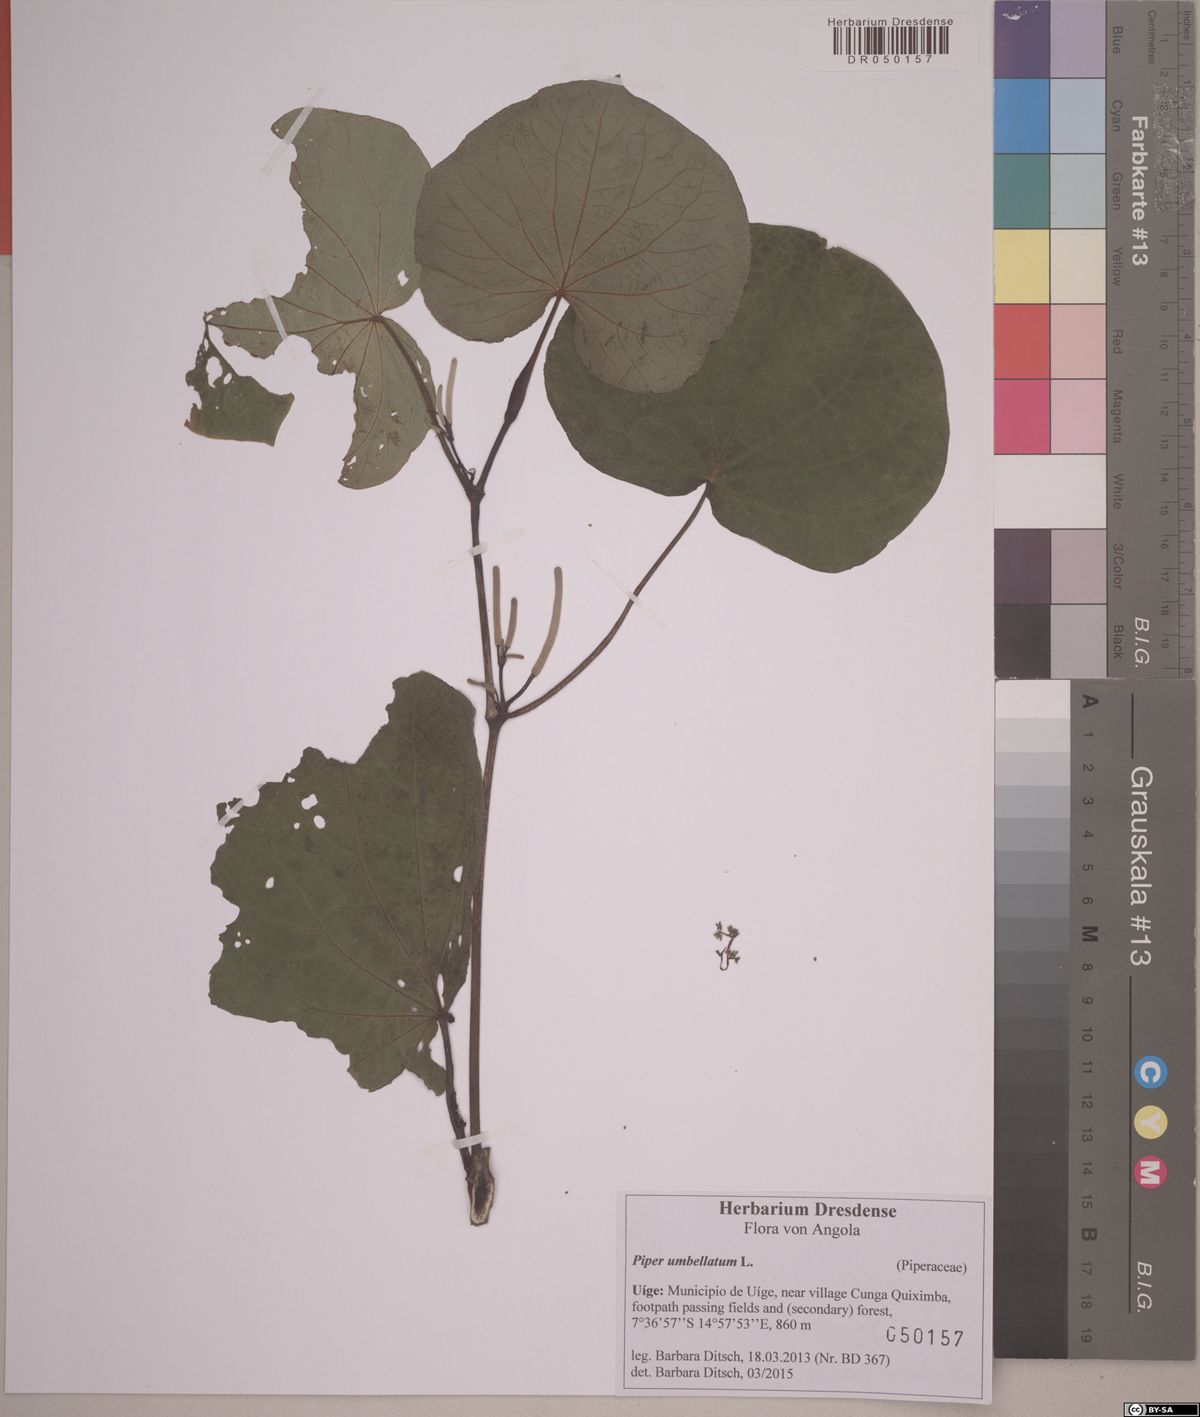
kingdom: Plantae
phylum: Tracheophyta
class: Magnoliopsida
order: Piperales
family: Piperaceae
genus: Piper
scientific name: Piper umbellatum
